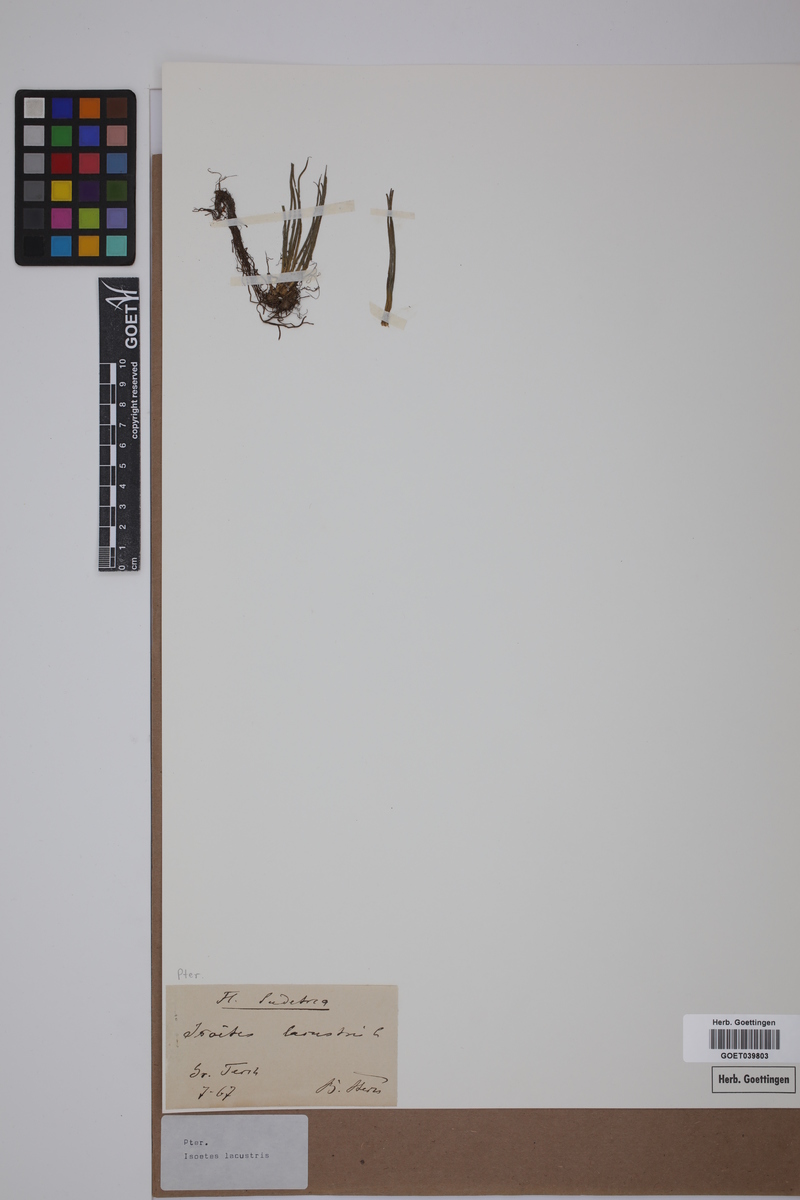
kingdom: Plantae
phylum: Tracheophyta
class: Lycopodiopsida
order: Isoetales
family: Isoetaceae
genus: Isoetes
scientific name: Isoetes lacustris
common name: Common quillwort
